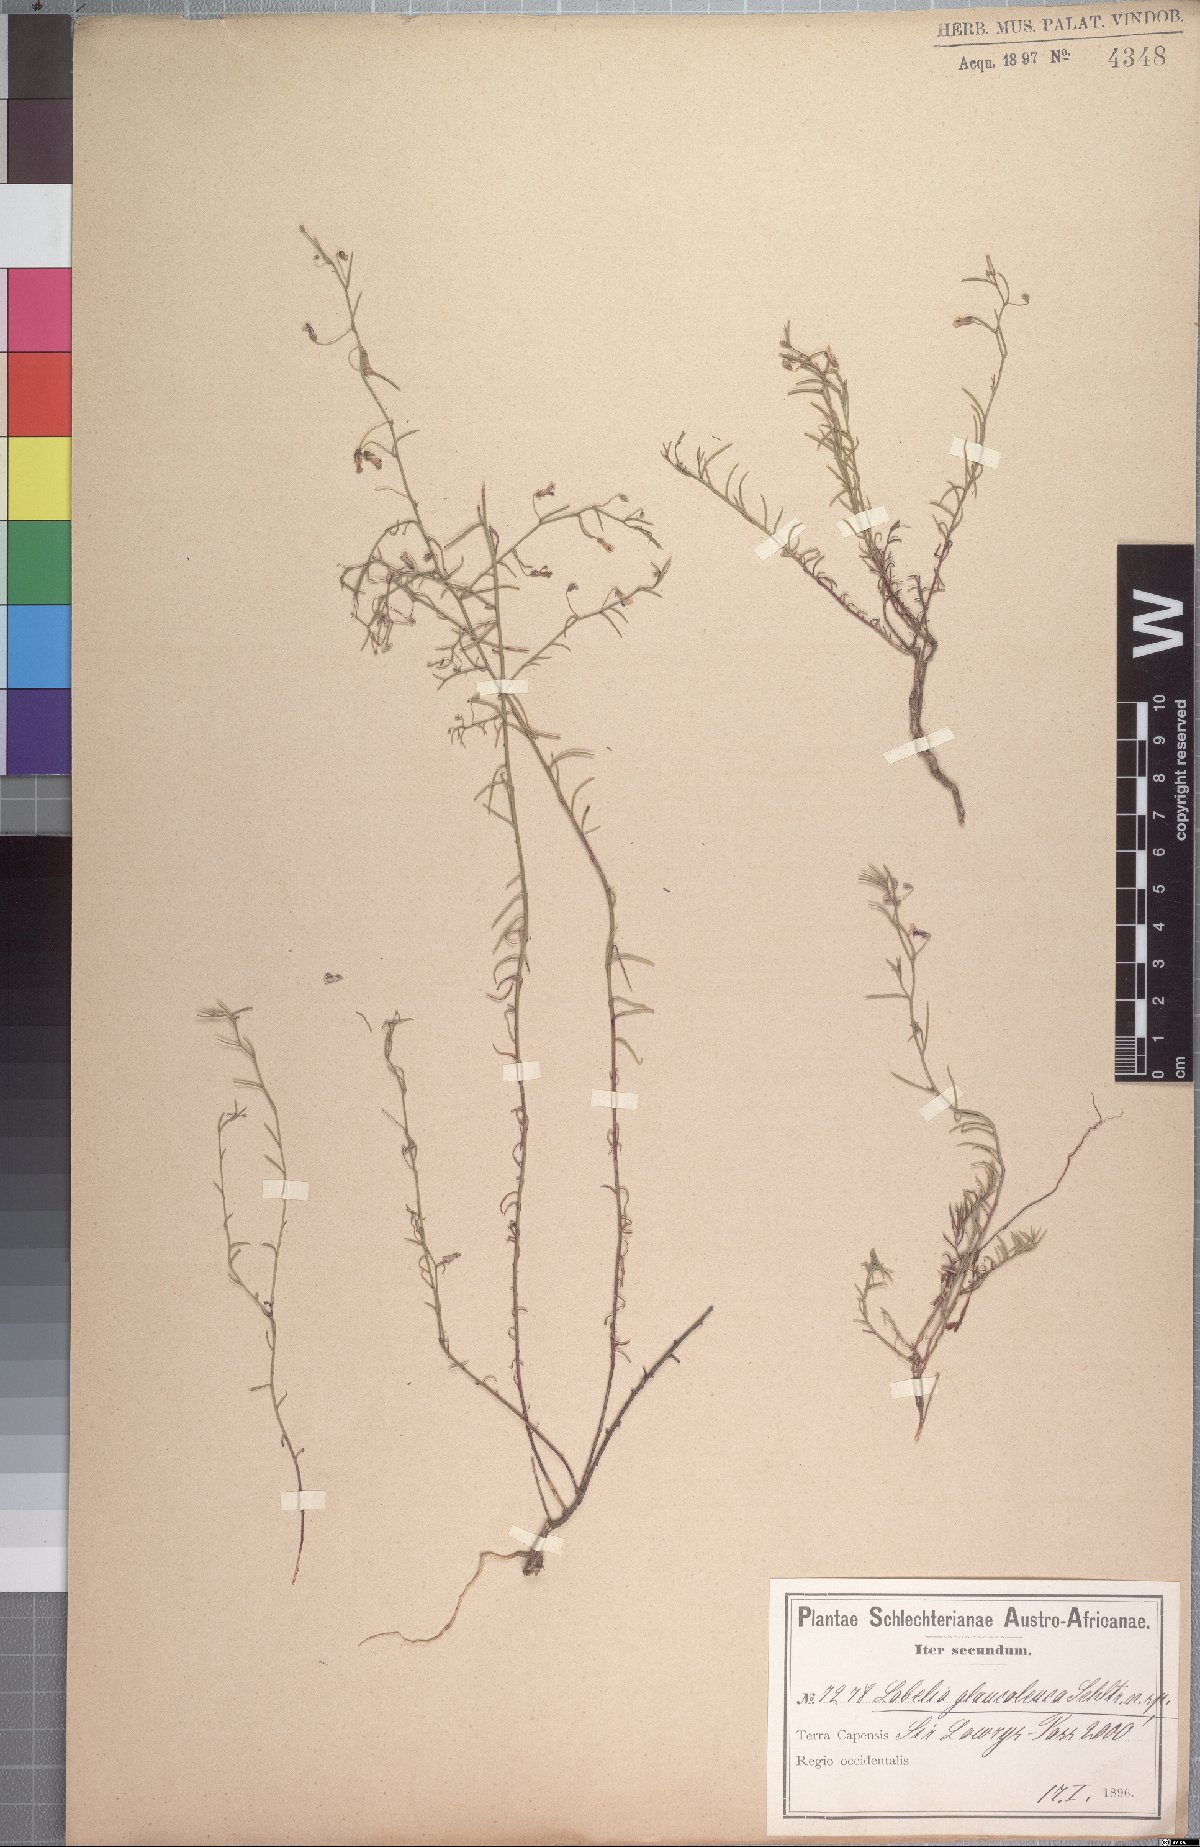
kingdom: Plantae
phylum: Tracheophyta
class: Magnoliopsida
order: Asterales
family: Campanulaceae
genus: Lobelia
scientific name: Lobelia setacea
